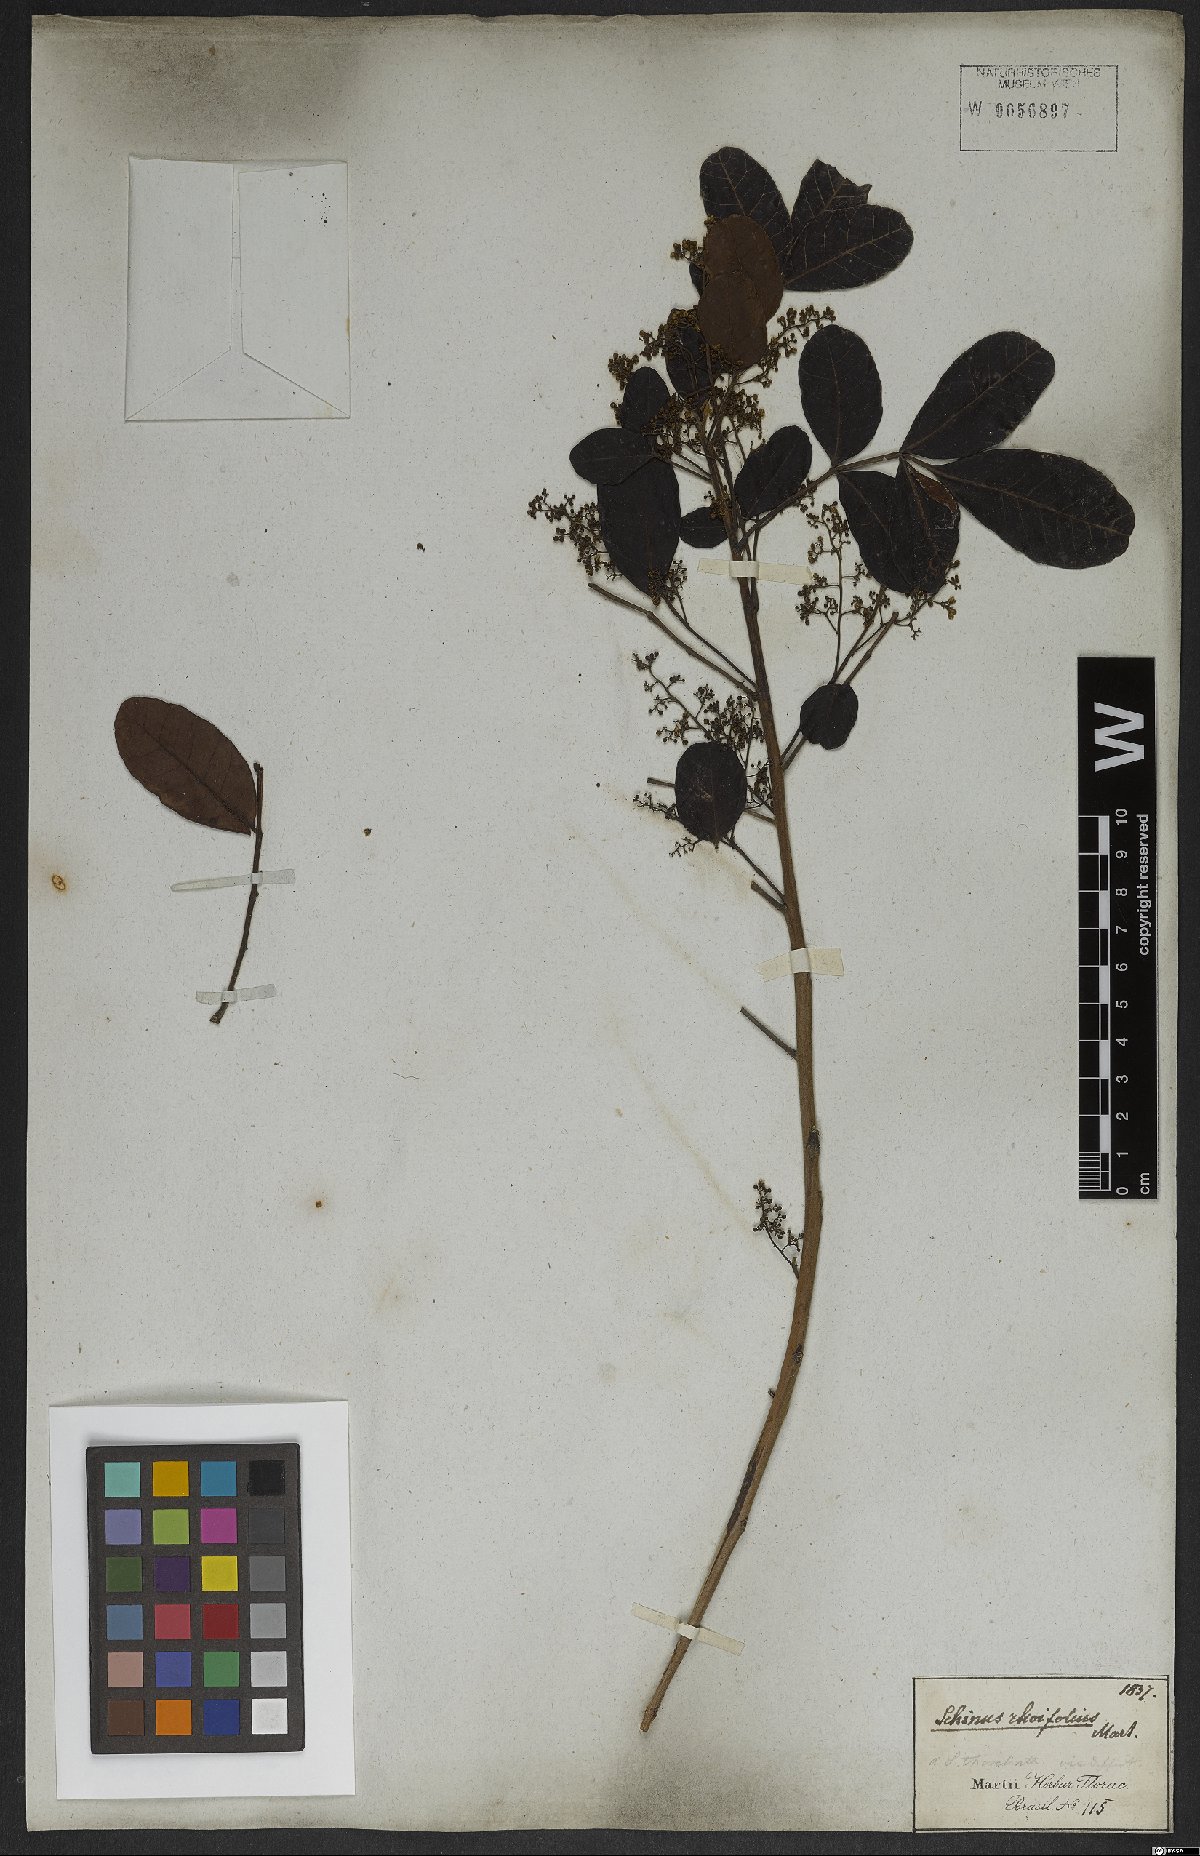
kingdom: Plantae
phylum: Tracheophyta
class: Magnoliopsida
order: Sapindales
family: Anacardiaceae
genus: Schinus
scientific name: Schinus terebinthifolia
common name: Brazilian peppertree
